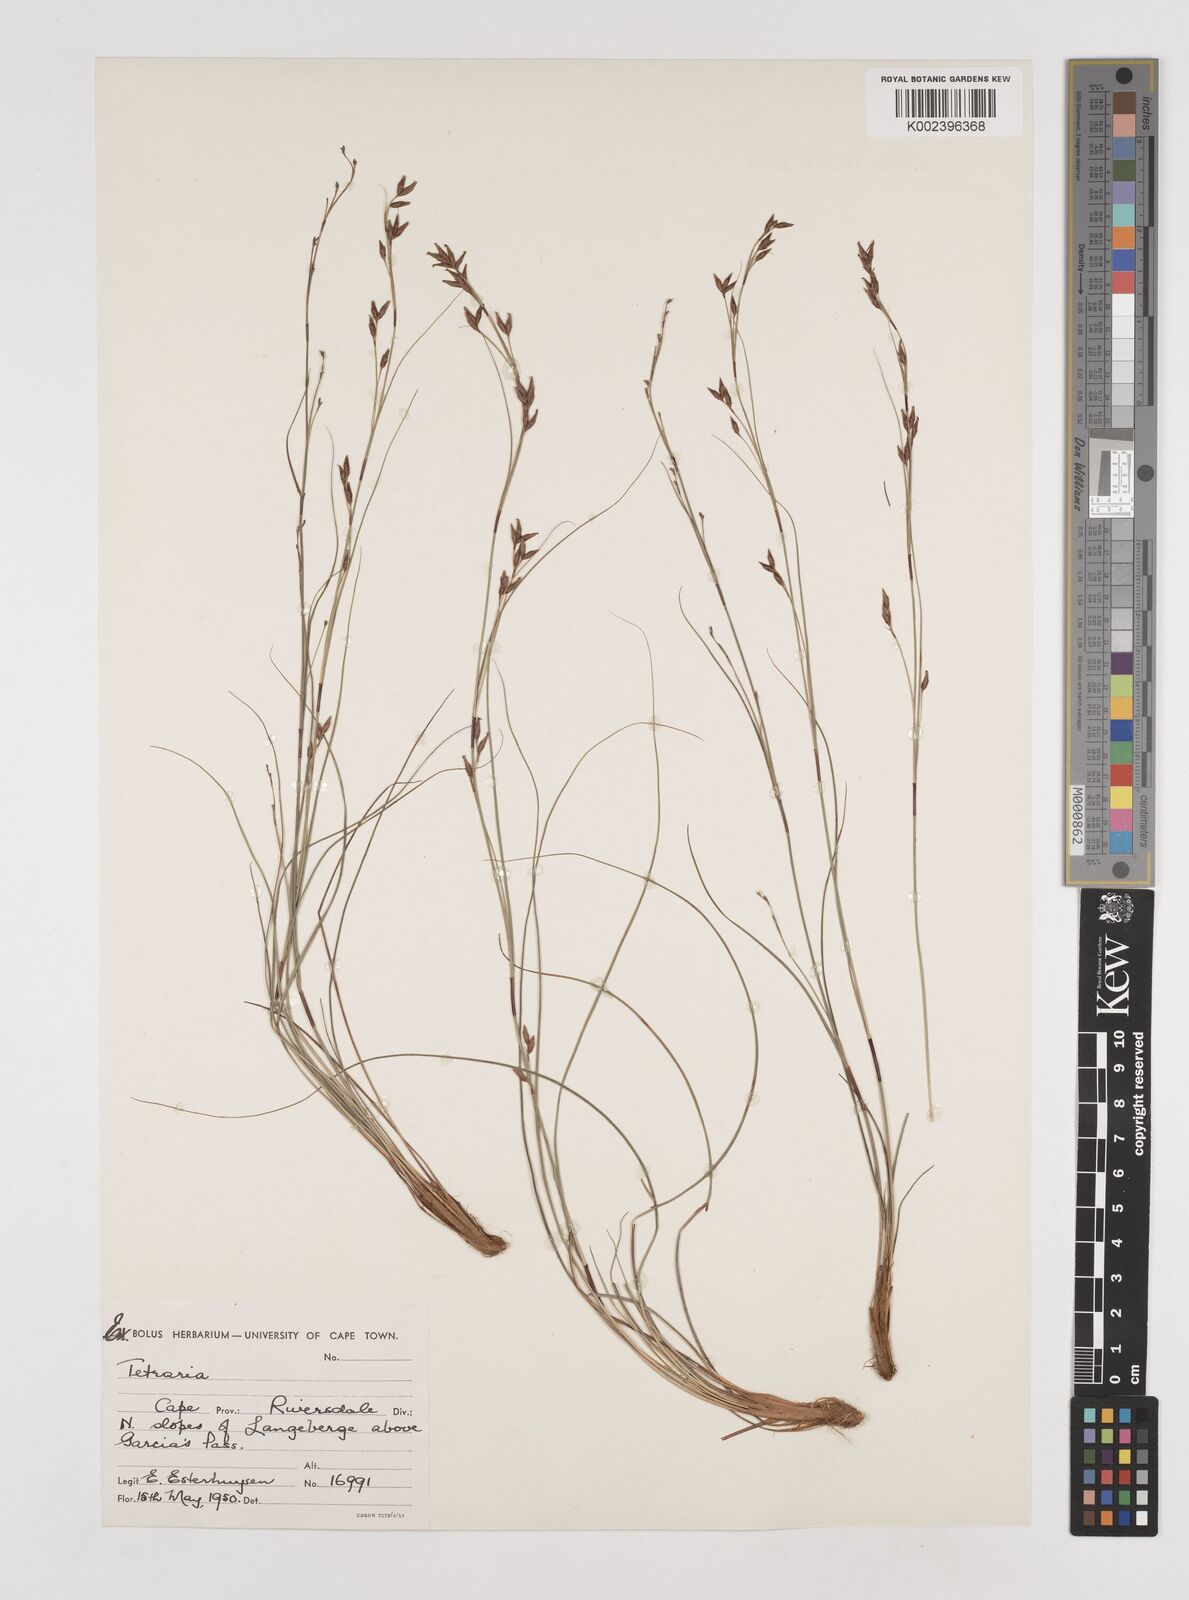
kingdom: Plantae
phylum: Tracheophyta
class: Liliopsida
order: Poales
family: Cyperaceae
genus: Tetraria
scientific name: Tetraria
